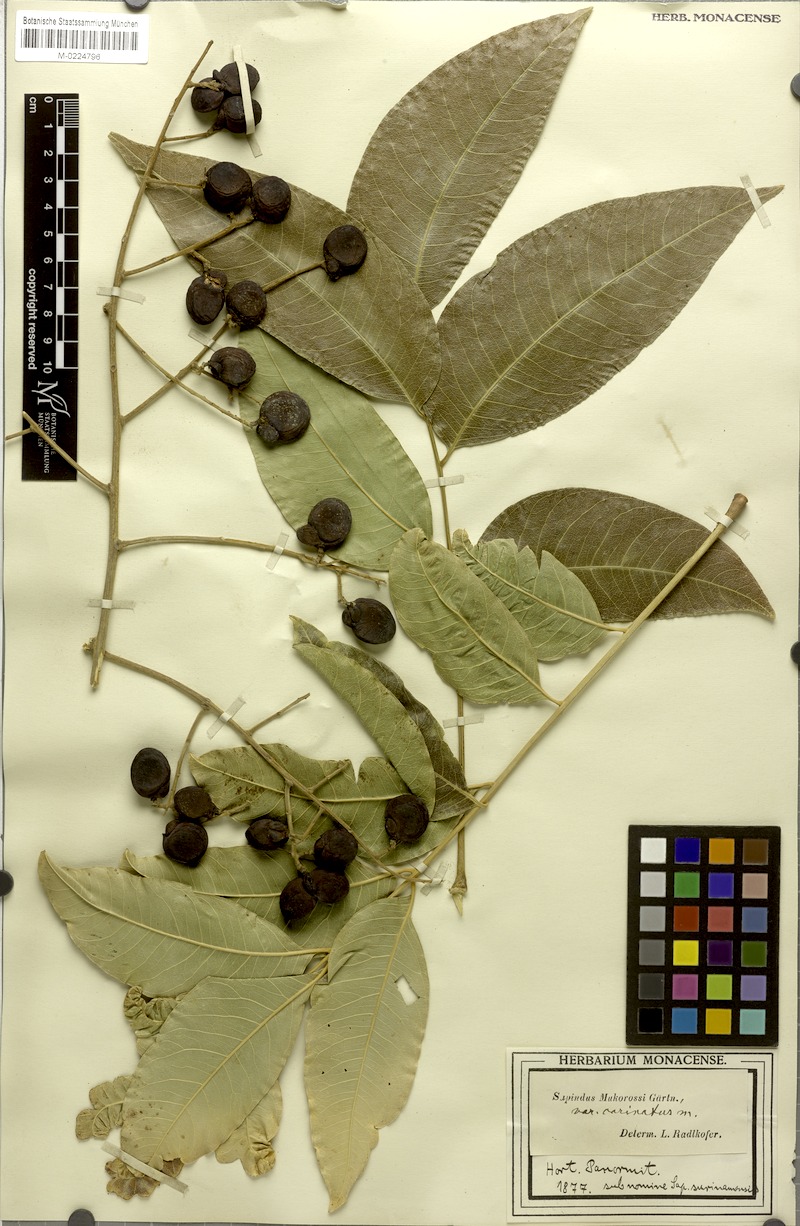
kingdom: Plantae
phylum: Tracheophyta
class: Magnoliopsida
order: Sapindales
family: Sapindaceae
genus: Sapindus
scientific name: Sapindus mukorossi
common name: Chinese soapberry
